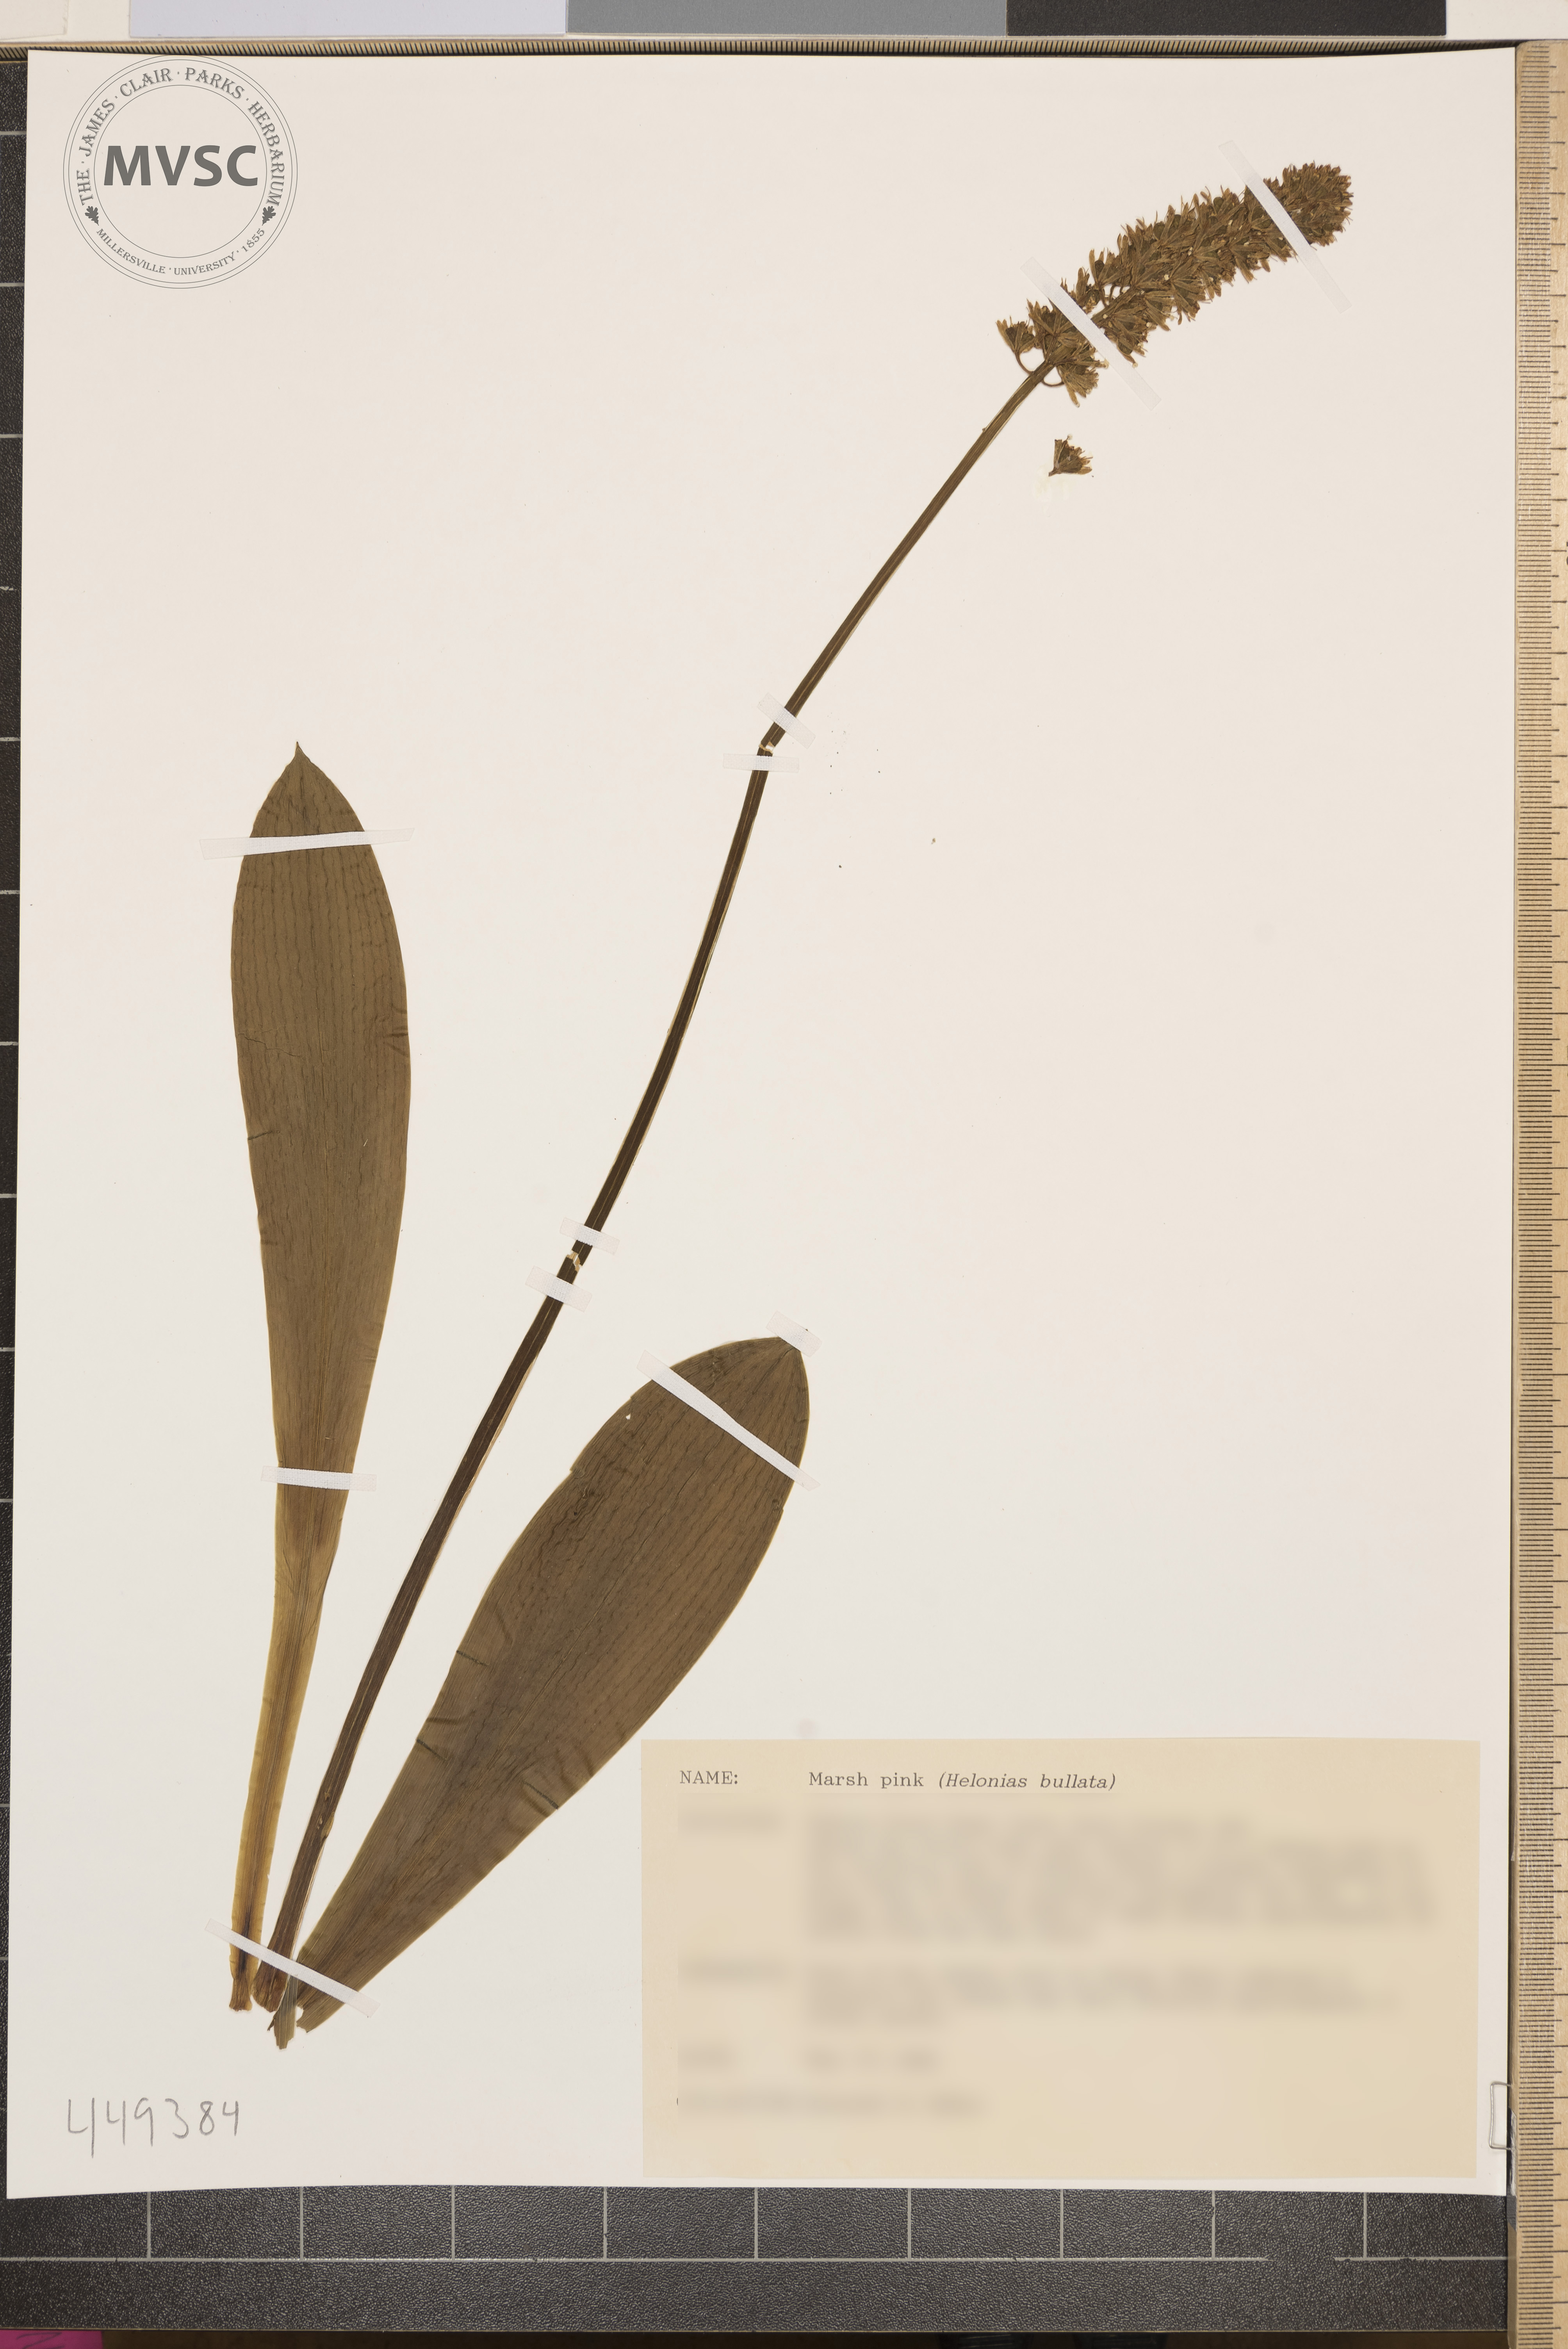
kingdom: Plantae
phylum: Tracheophyta
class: Liliopsida
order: Liliales
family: Melanthiaceae
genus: Helonias
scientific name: Helonias bullata
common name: Swamp-pink
